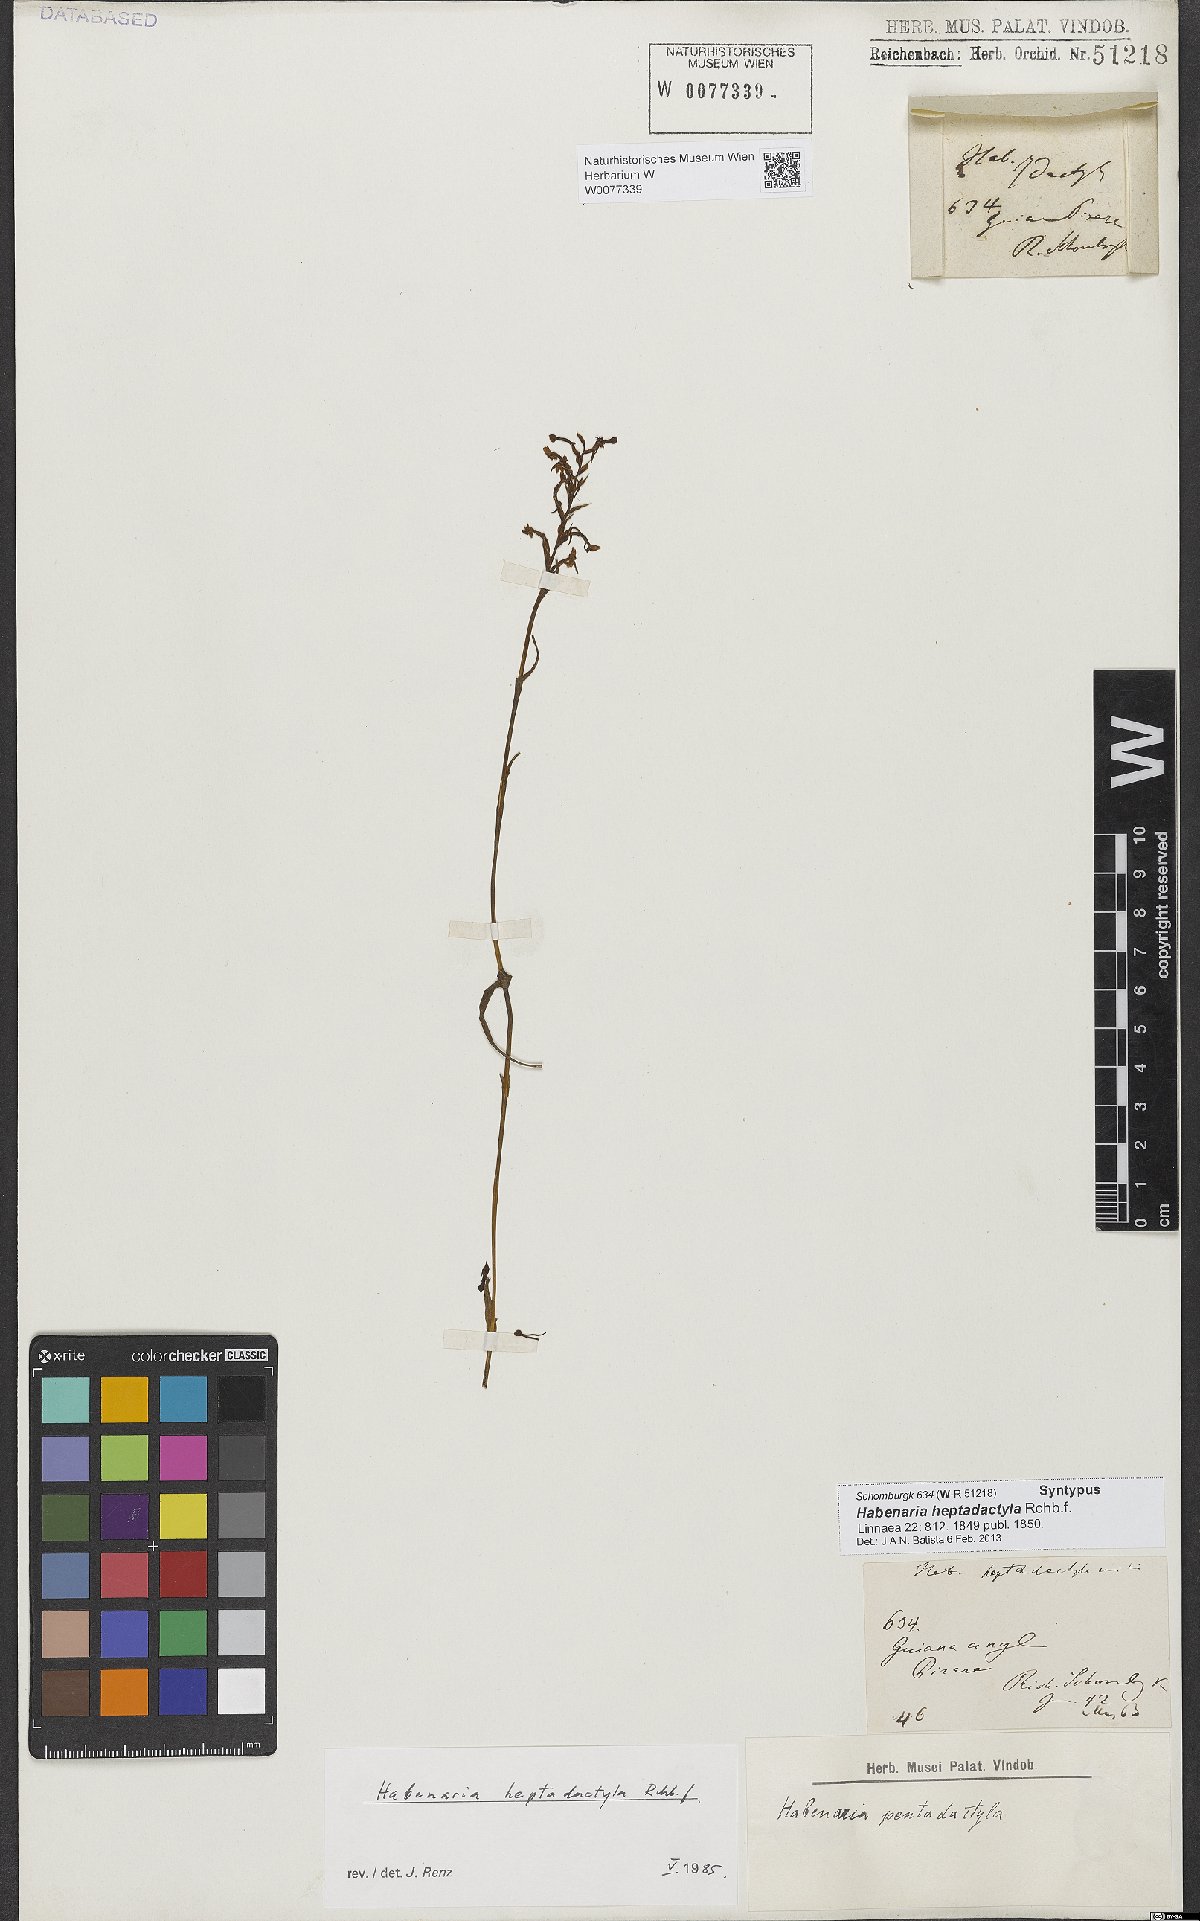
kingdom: Plantae
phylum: Tracheophyta
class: Liliopsida
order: Asparagales
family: Orchidaceae
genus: Habenaria
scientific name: Habenaria heptadactyla
